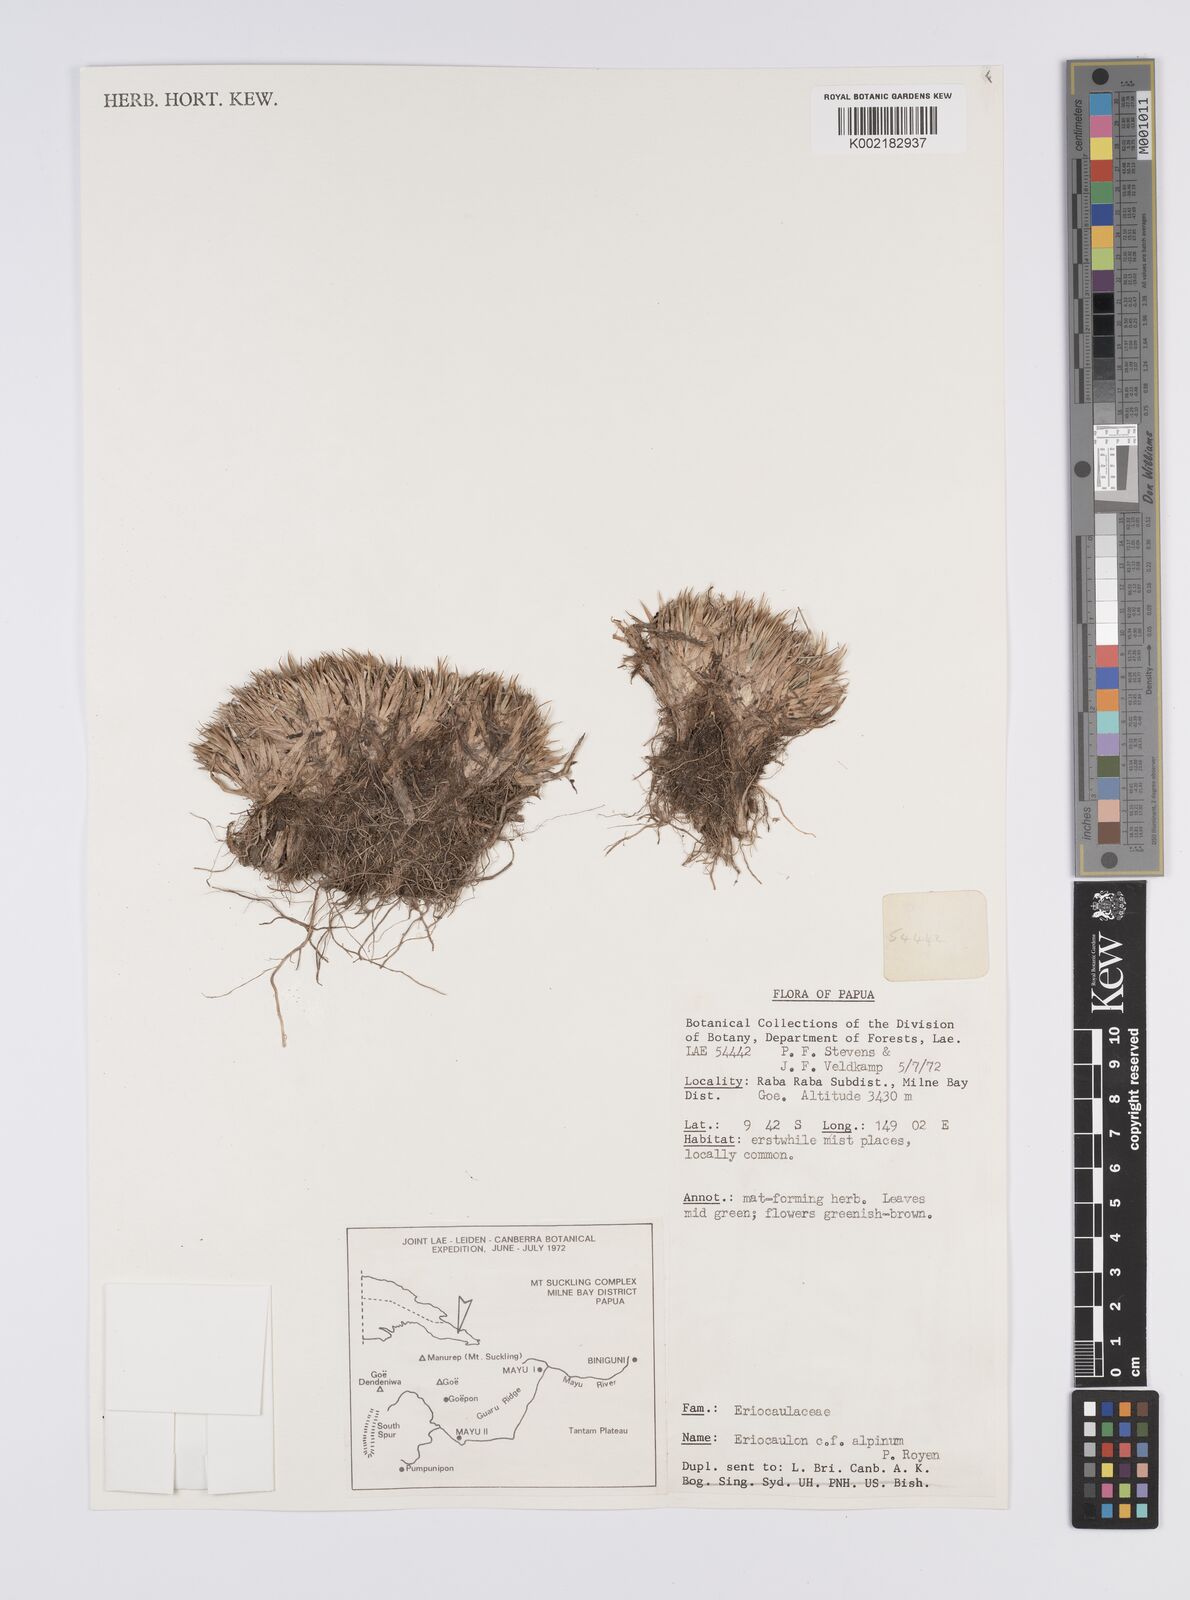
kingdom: Plantae
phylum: Tracheophyta
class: Liliopsida
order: Poales
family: Eriocaulaceae
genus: Eriocaulon
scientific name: Eriocaulon alpinum
